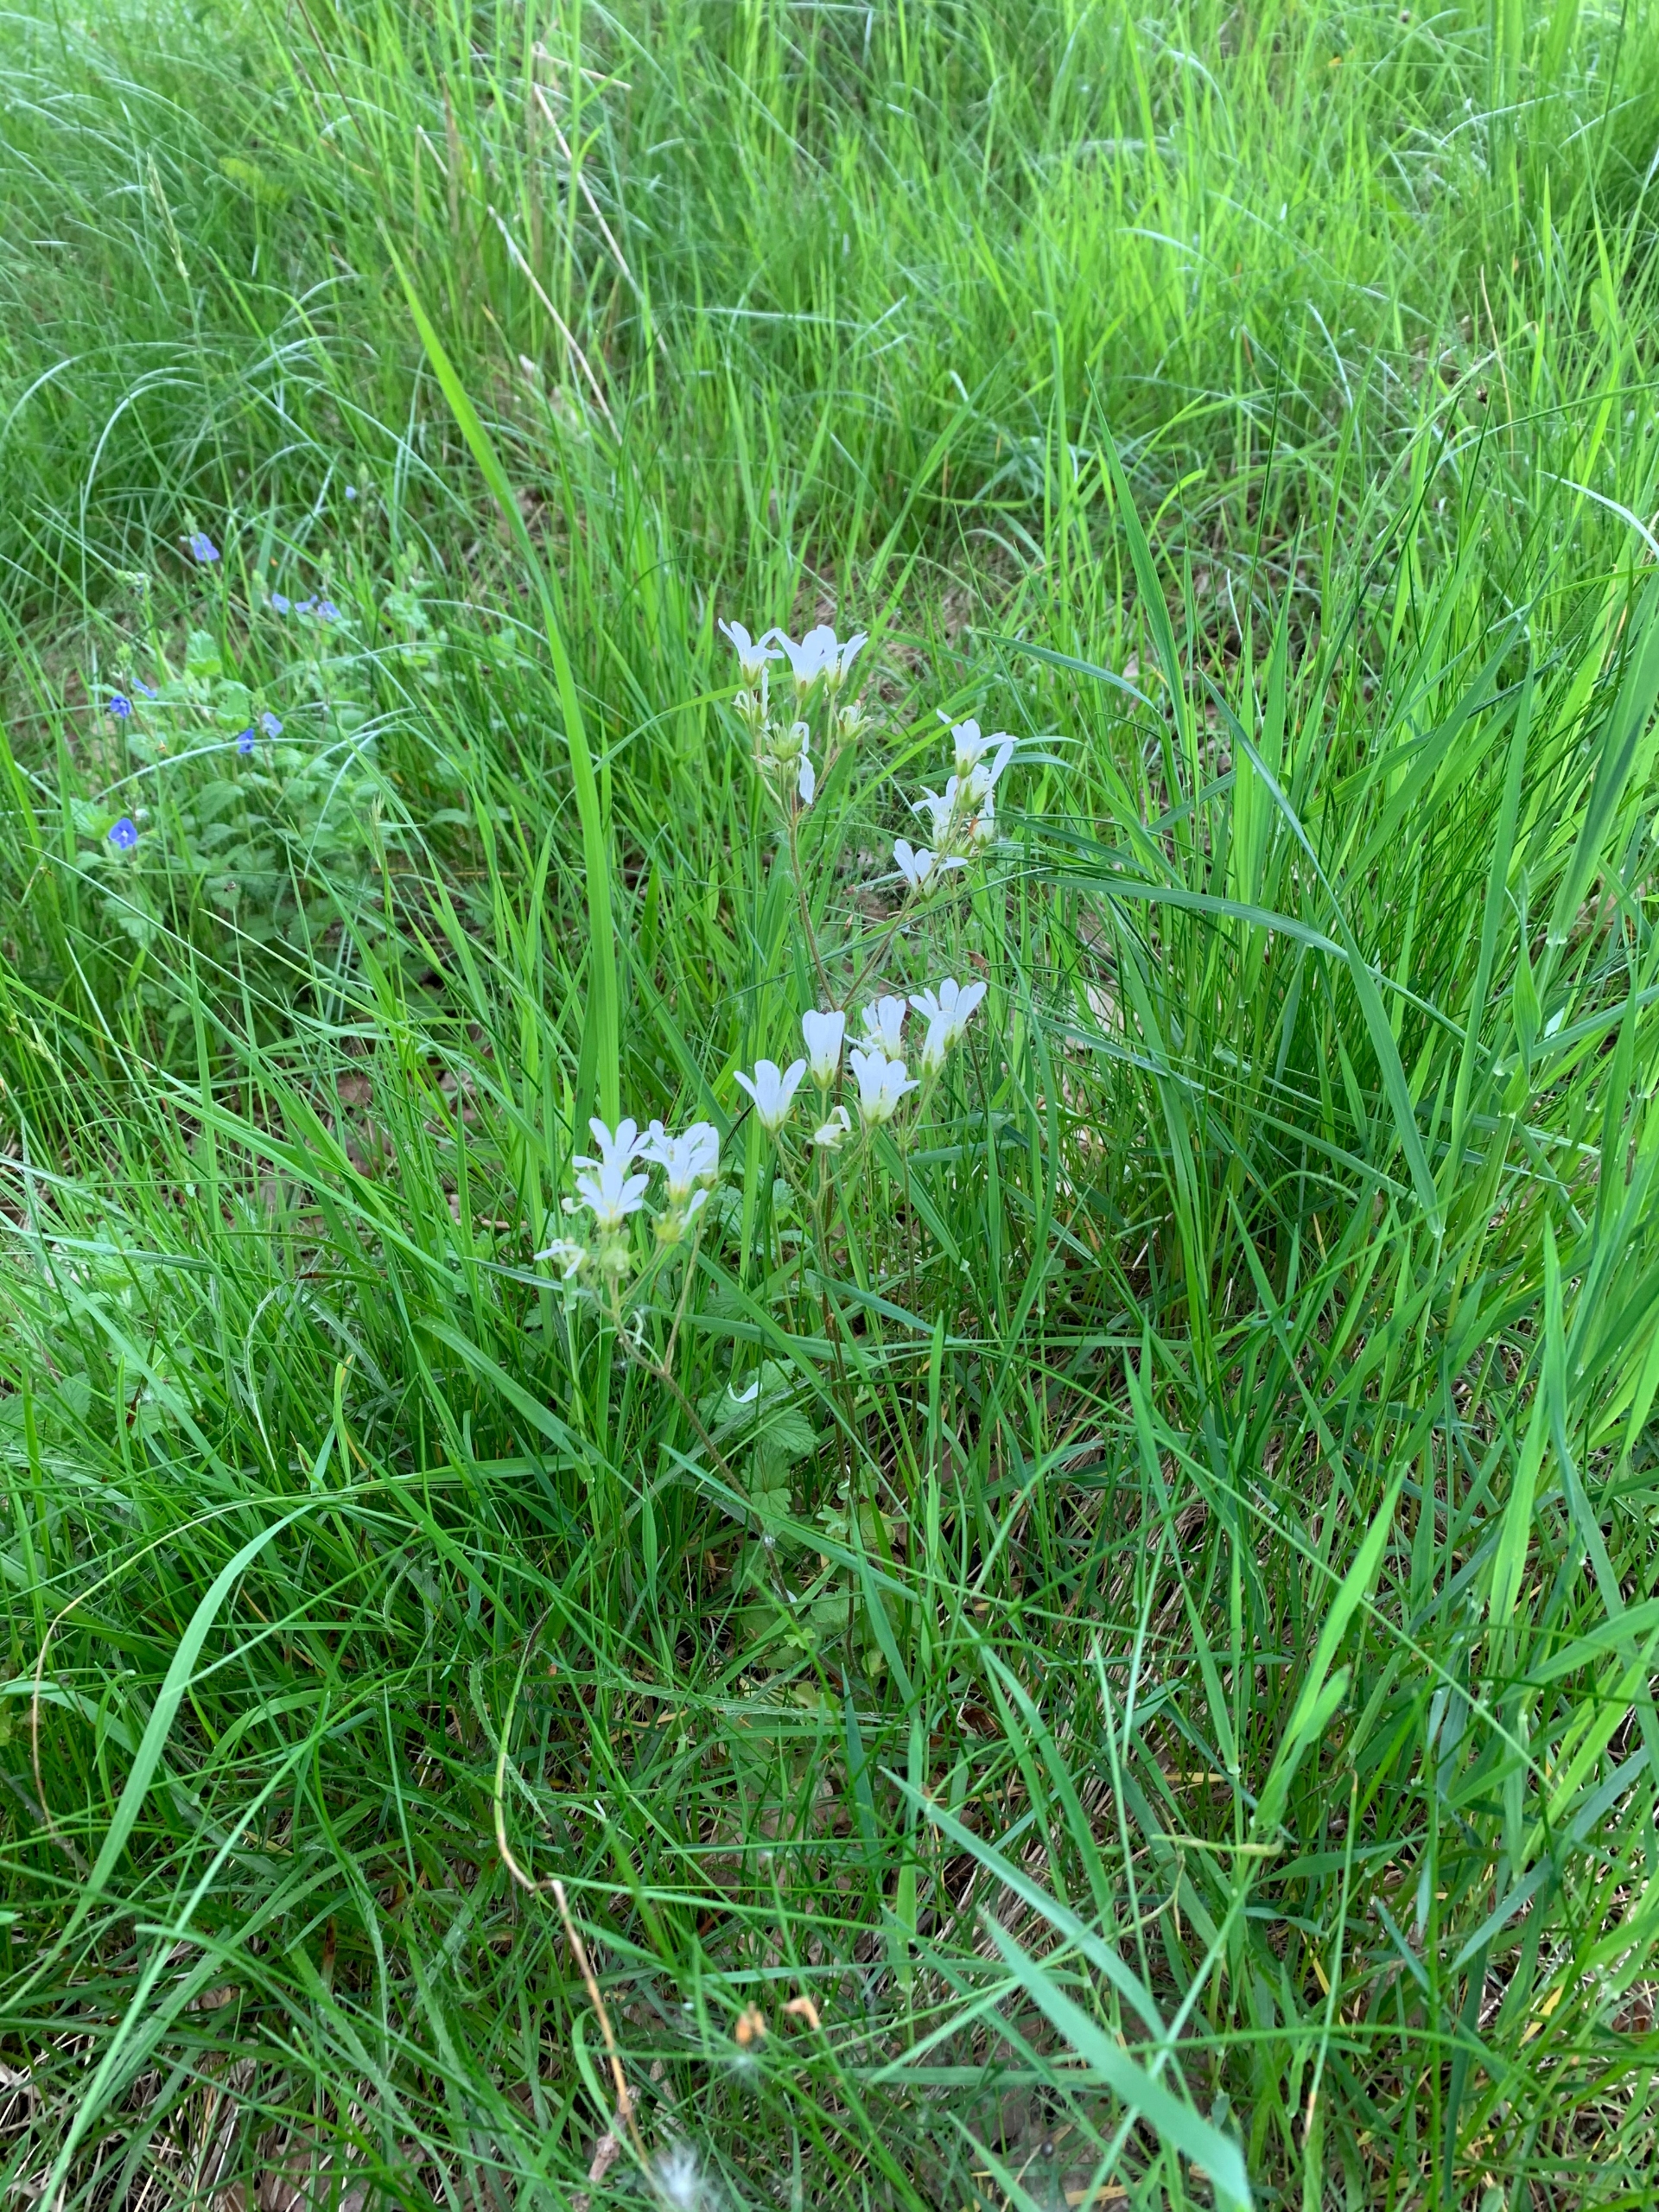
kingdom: Plantae
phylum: Tracheophyta
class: Magnoliopsida
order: Saxifragales
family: Saxifragaceae
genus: Saxifraga
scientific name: Saxifraga granulata
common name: Kornet stenbræk
